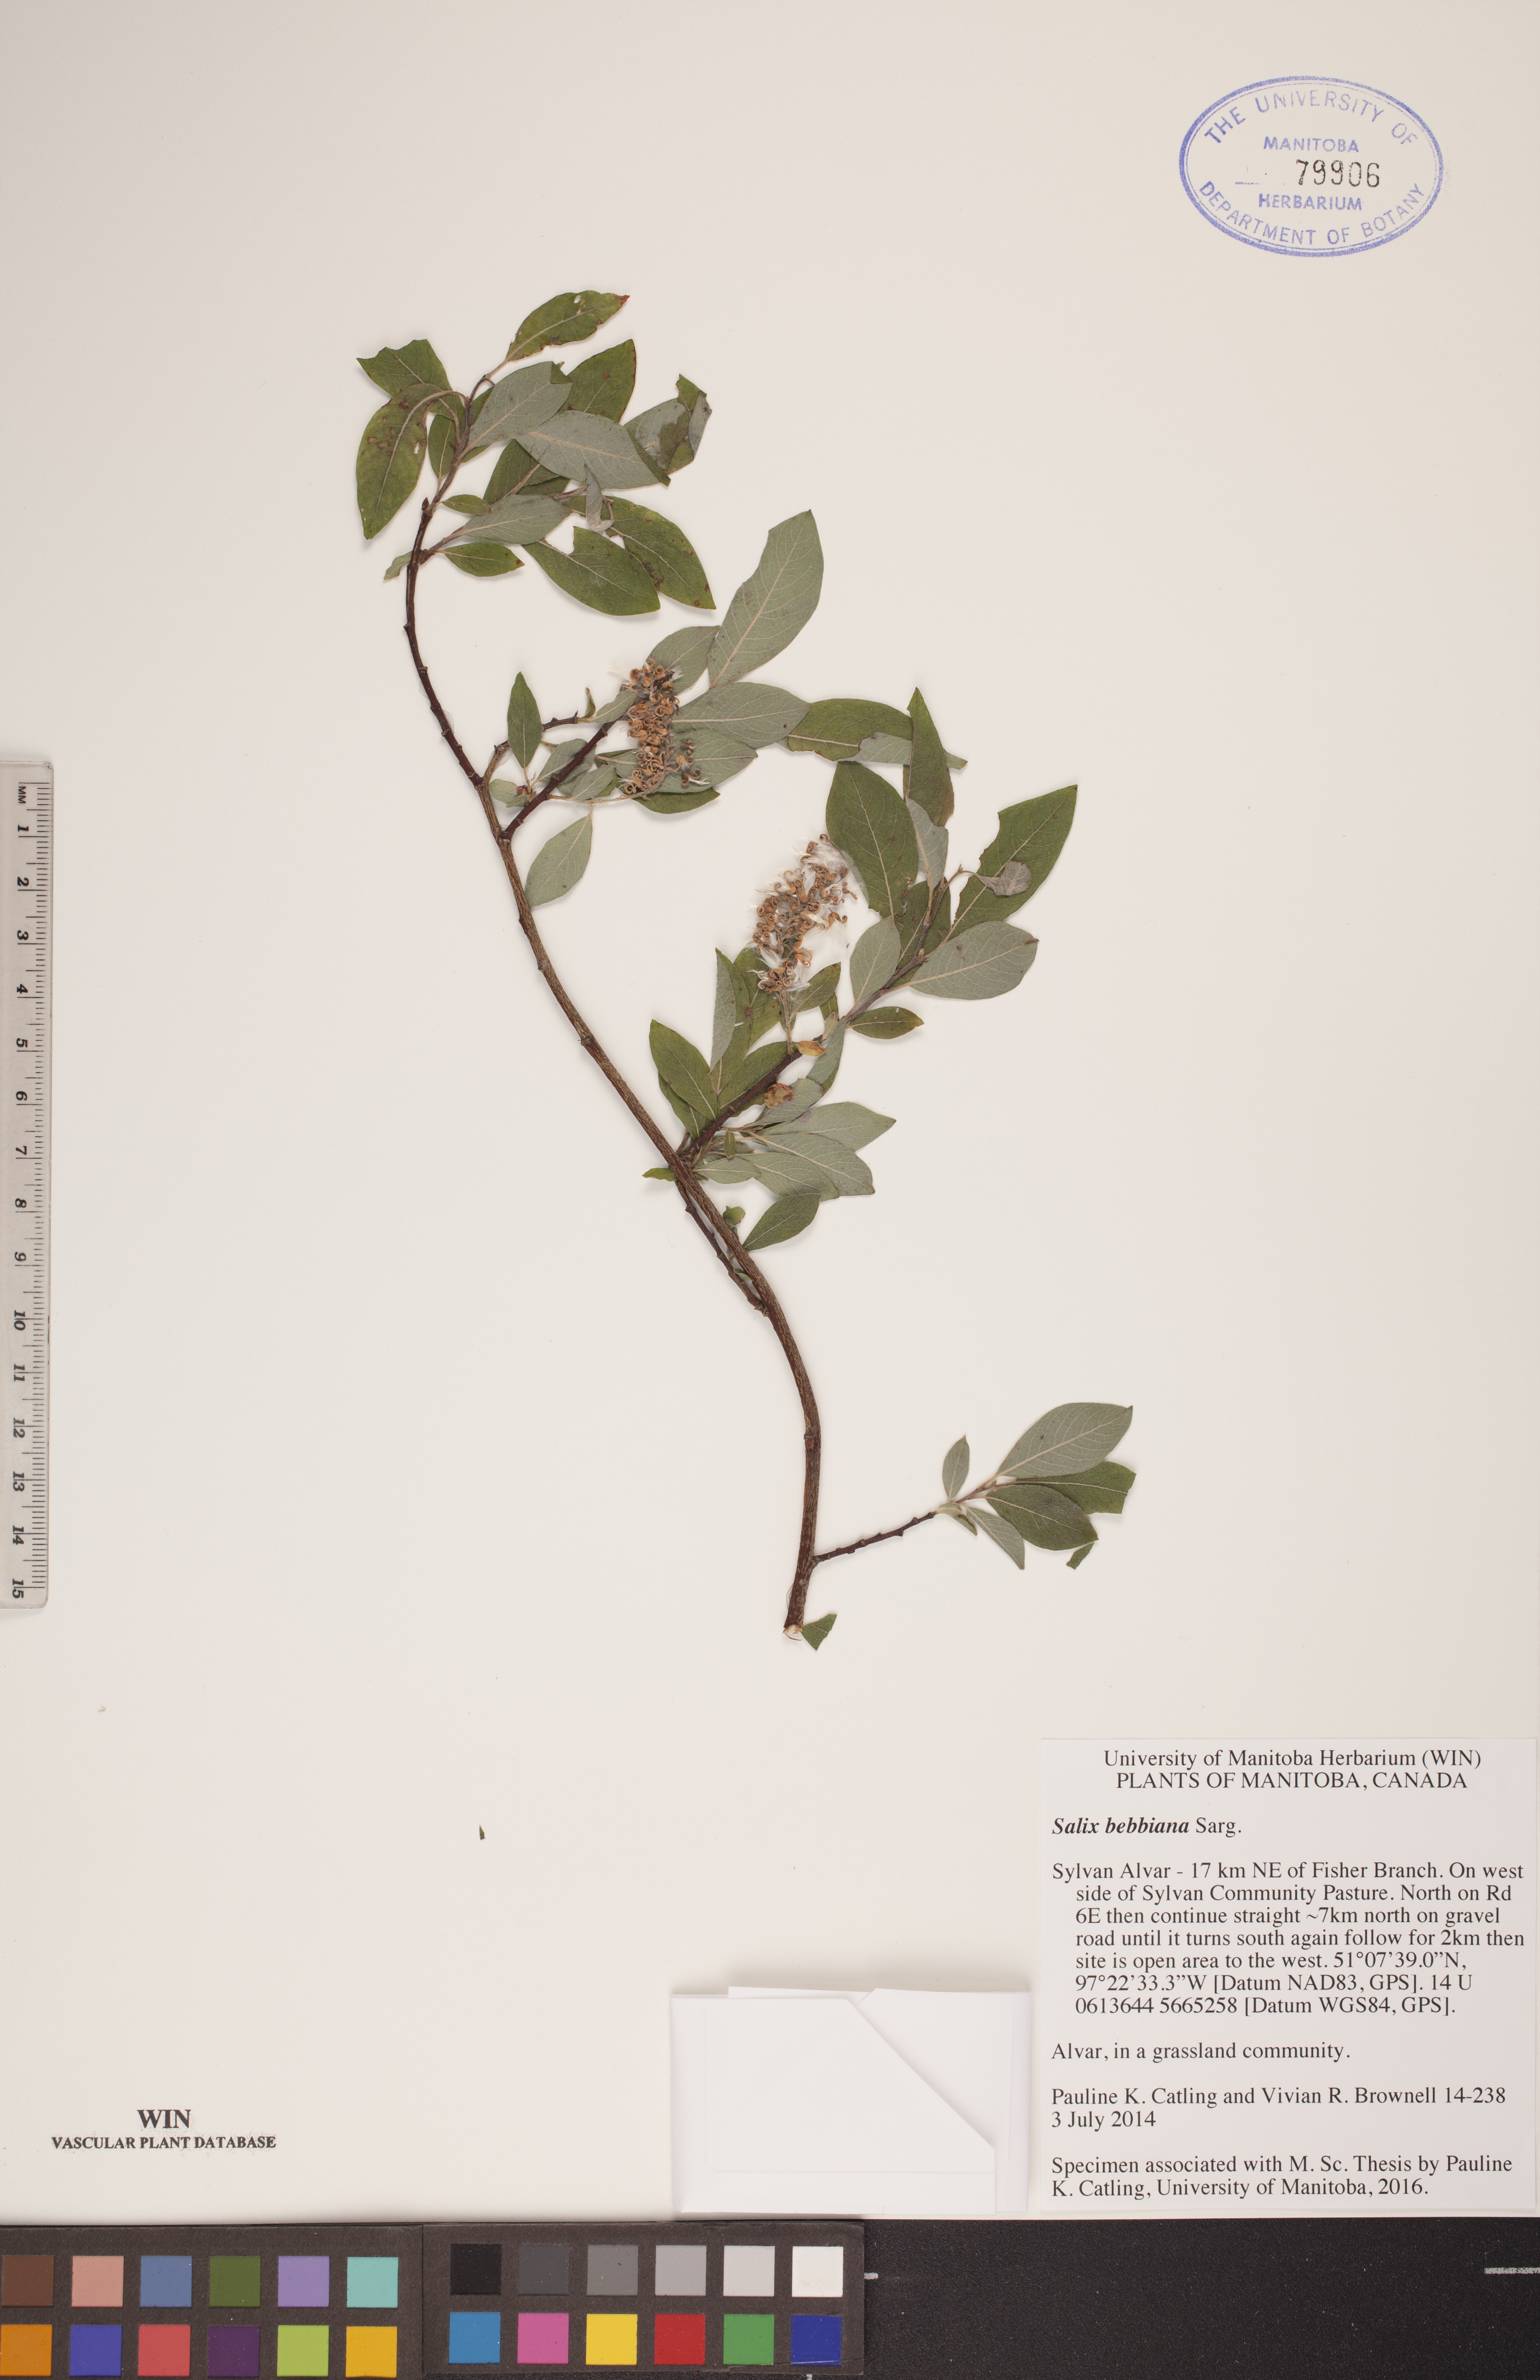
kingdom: Plantae
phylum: Tracheophyta
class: Magnoliopsida
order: Malpighiales
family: Salicaceae
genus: Salix
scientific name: Salix bebbiana
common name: Bebb's willow
